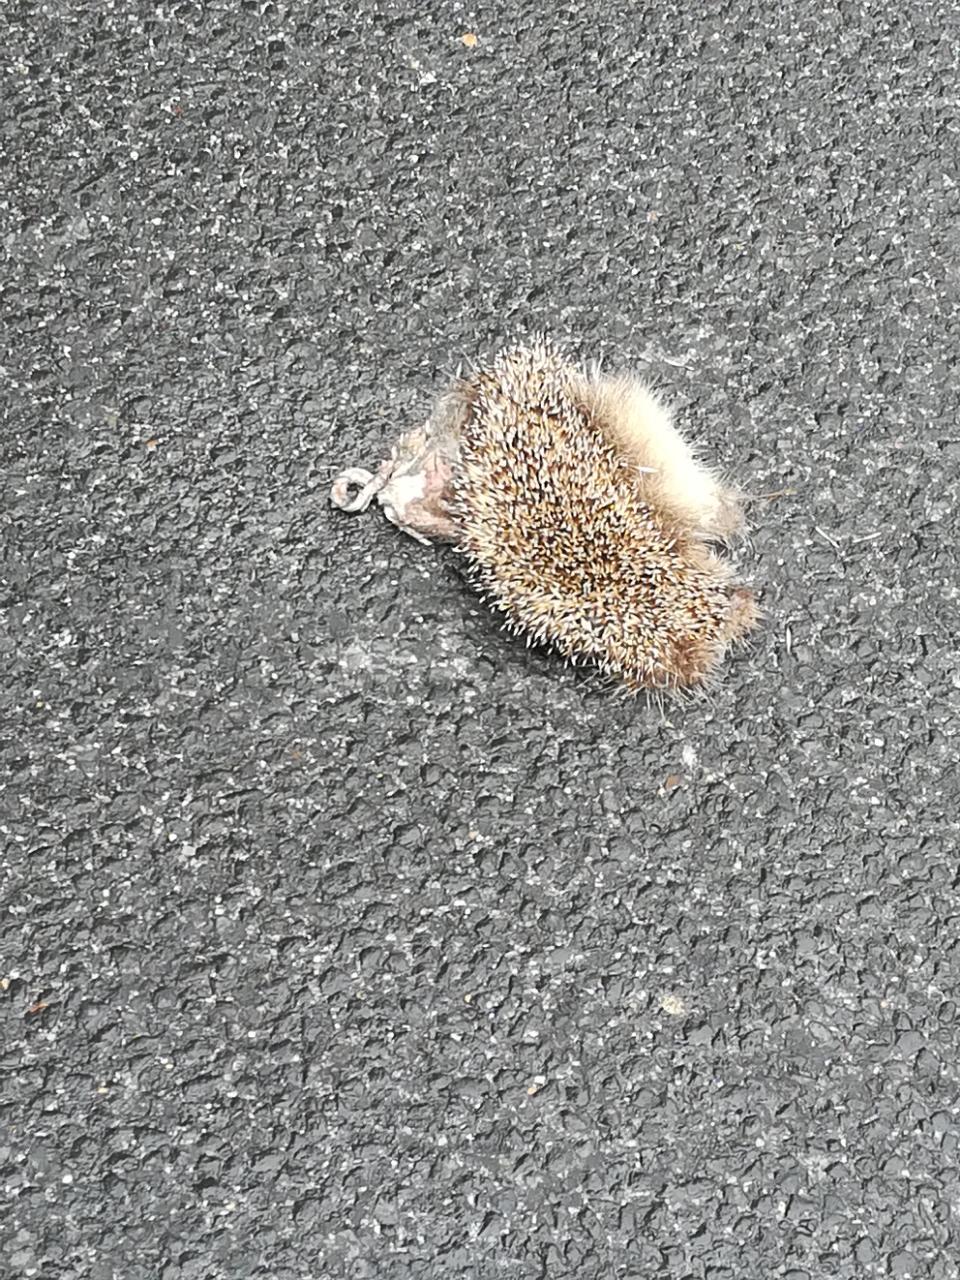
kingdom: Animalia
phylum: Chordata
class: Mammalia
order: Erinaceomorpha
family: Erinaceidae
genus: Erinaceus
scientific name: Erinaceus
